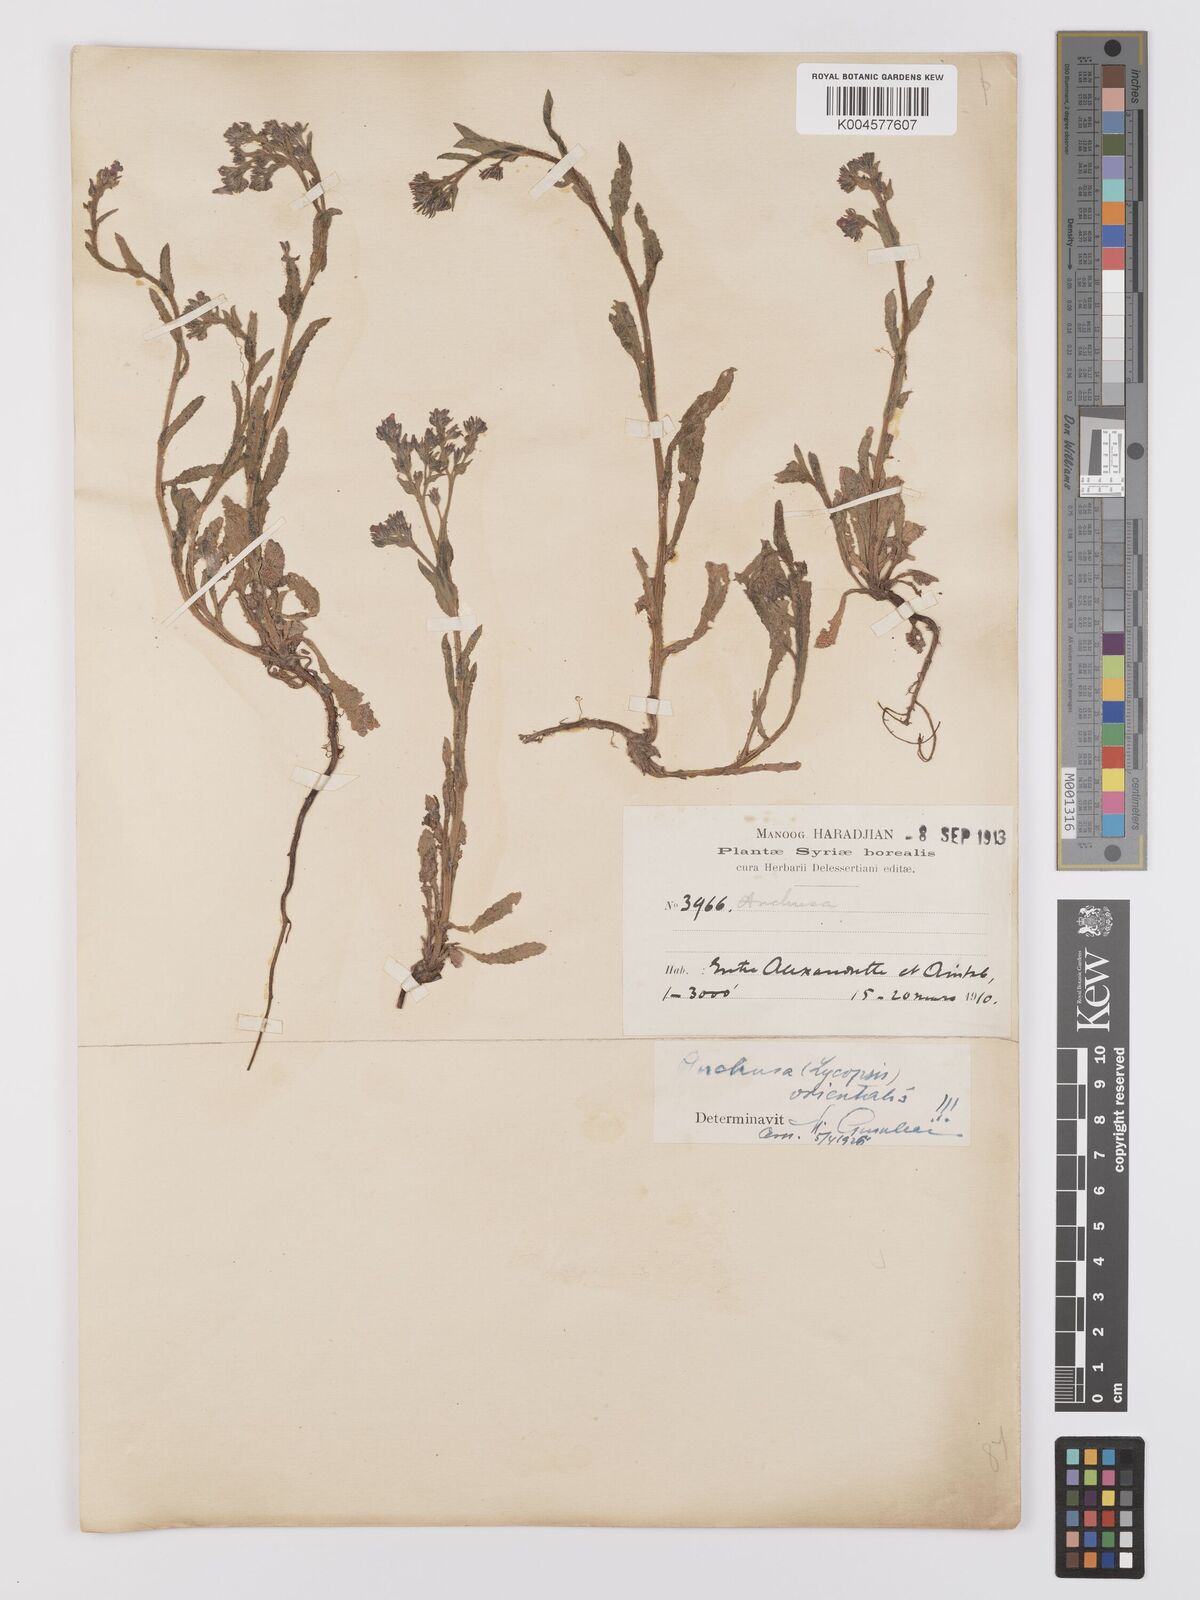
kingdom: Plantae
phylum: Tracheophyta
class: Magnoliopsida
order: Boraginales
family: Boraginaceae
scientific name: Boraginaceae
